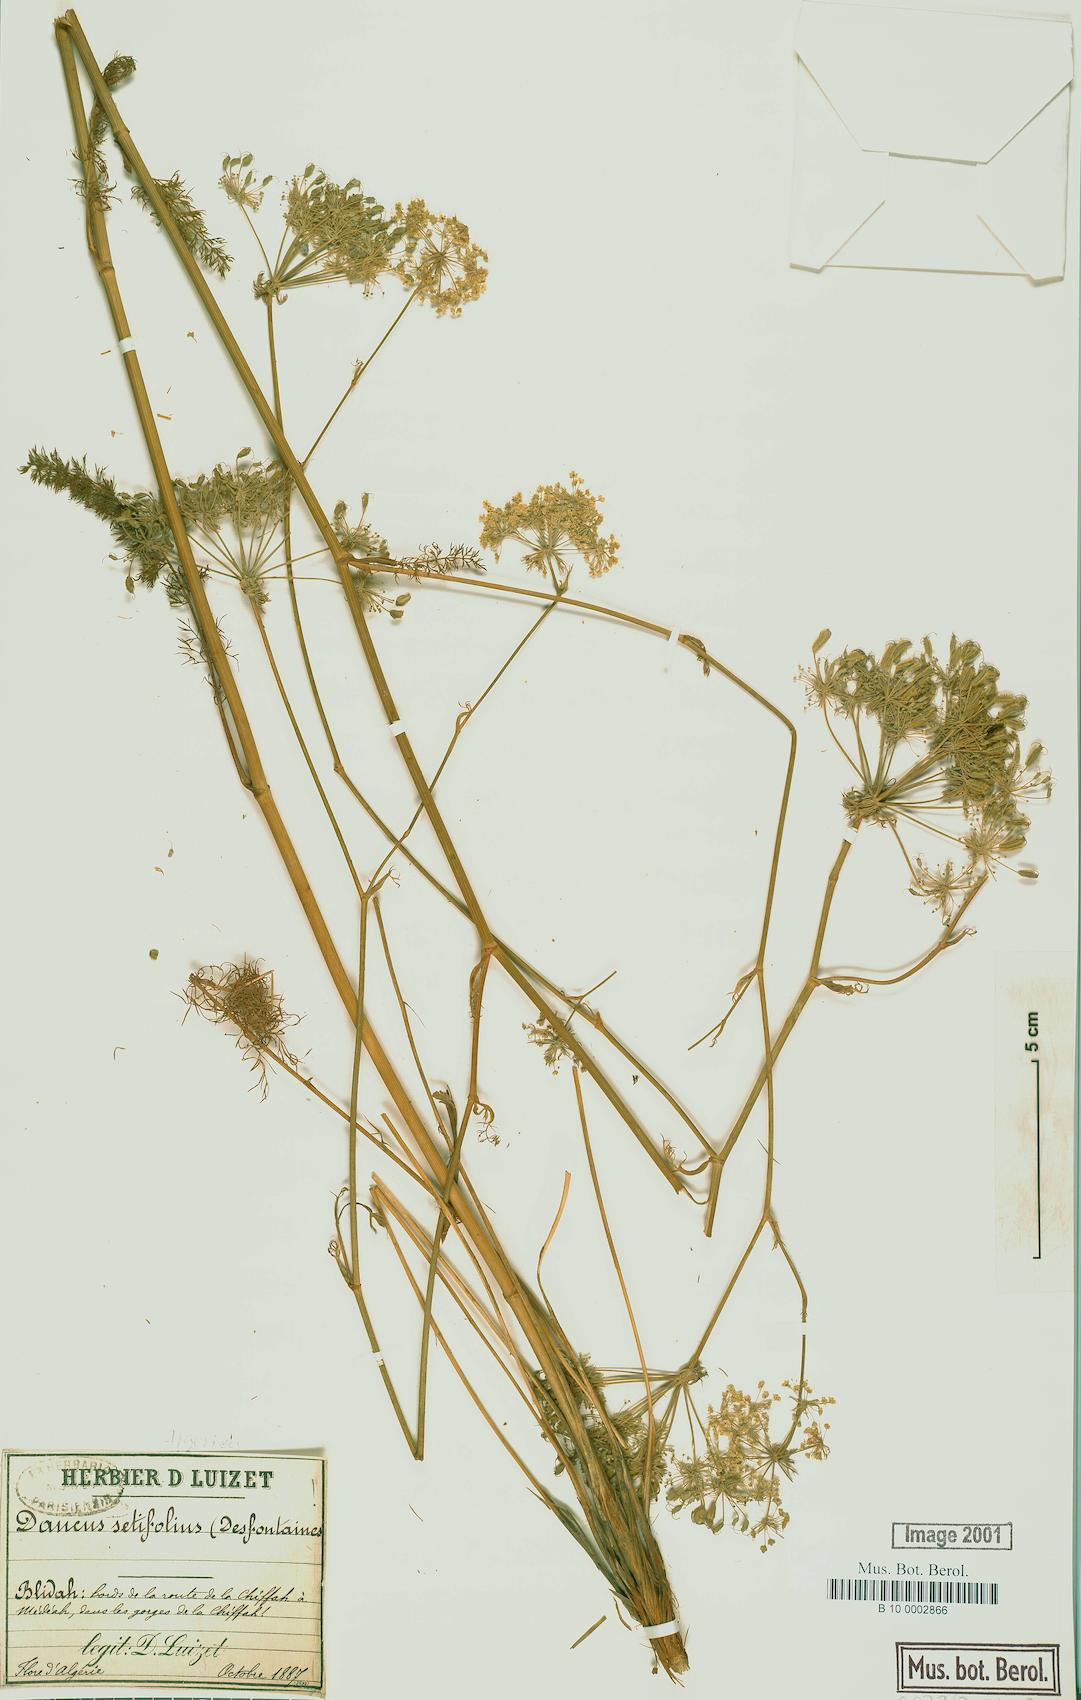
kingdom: Plantae
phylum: Tracheophyta
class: Magnoliopsida
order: Apiales
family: Apiaceae
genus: Daucus
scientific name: Daucus insularis
